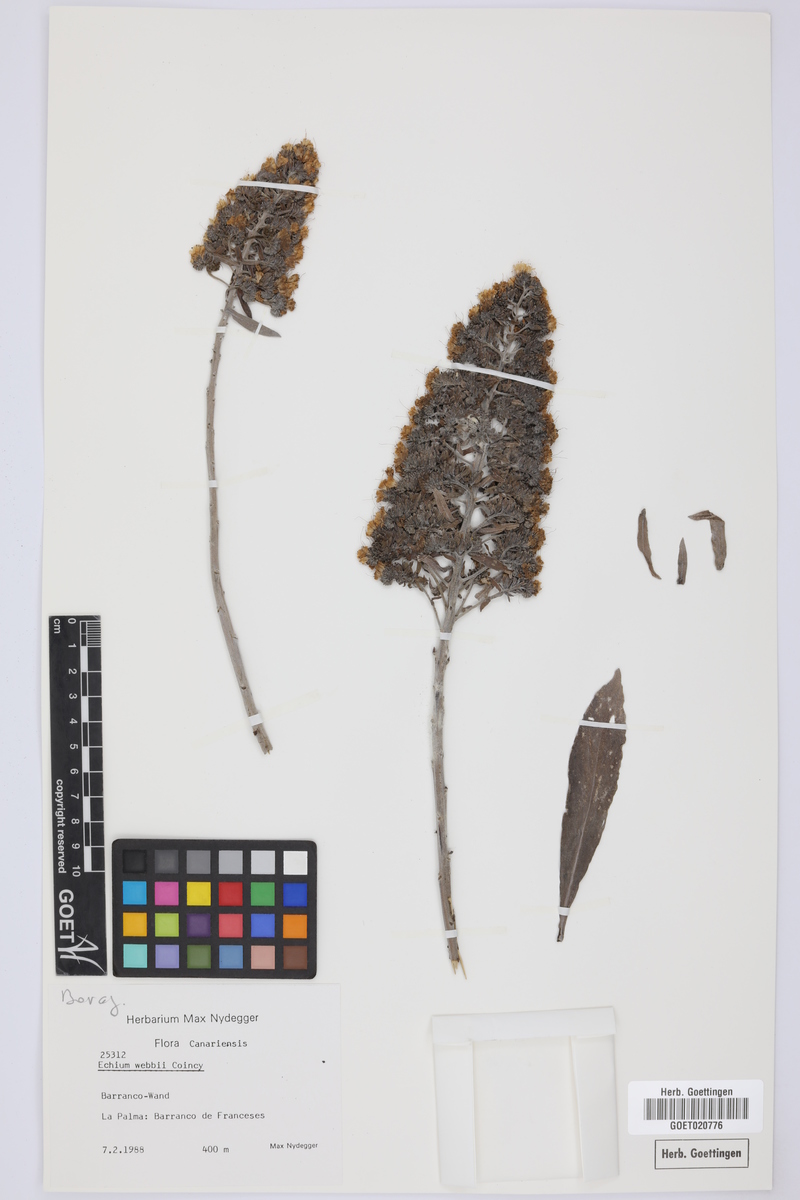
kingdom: Plantae
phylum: Tracheophyta
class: Magnoliopsida
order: Boraginales
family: Boraginaceae
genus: Echium
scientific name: Echium webbii
